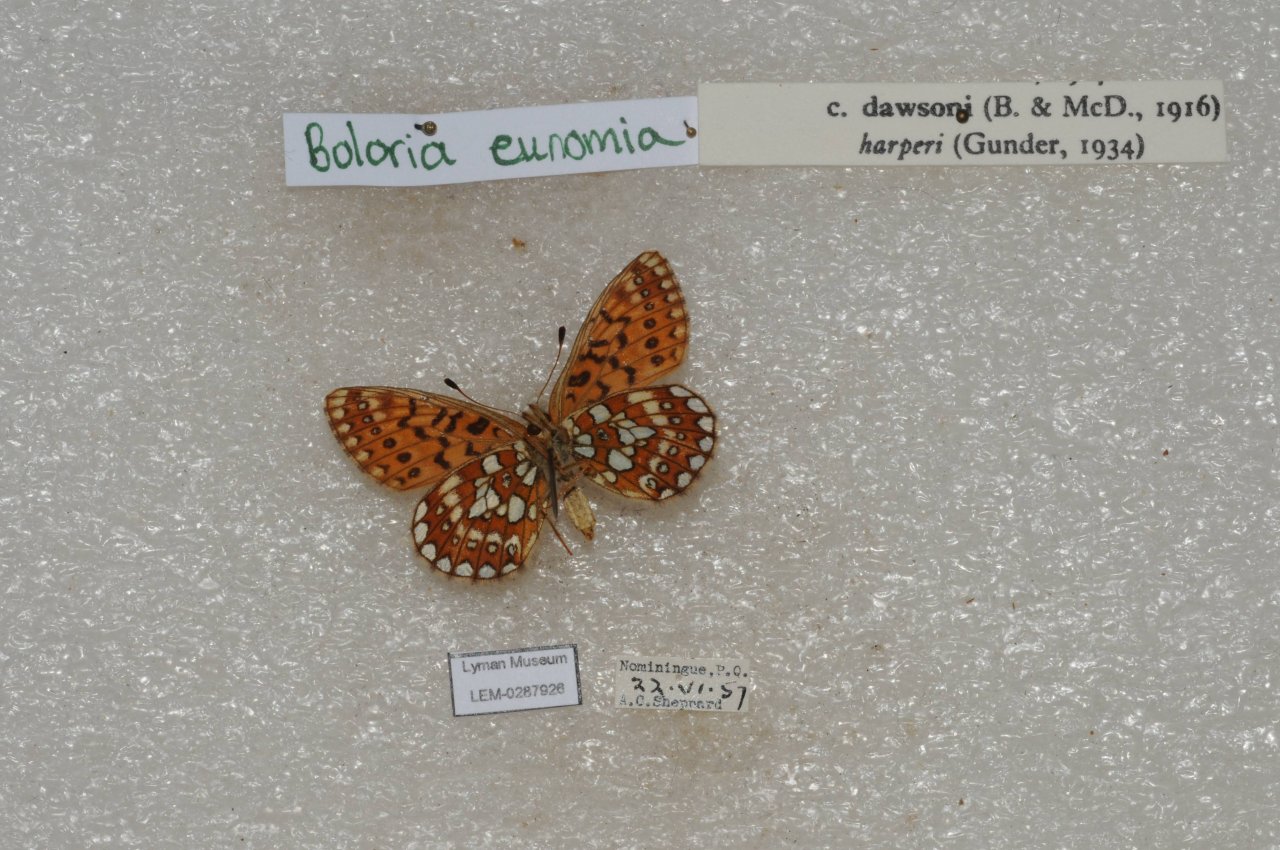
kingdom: Animalia
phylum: Arthropoda
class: Insecta
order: Lepidoptera
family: Nymphalidae
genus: Boloria
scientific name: Boloria eunomia
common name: Bog Fritillary
